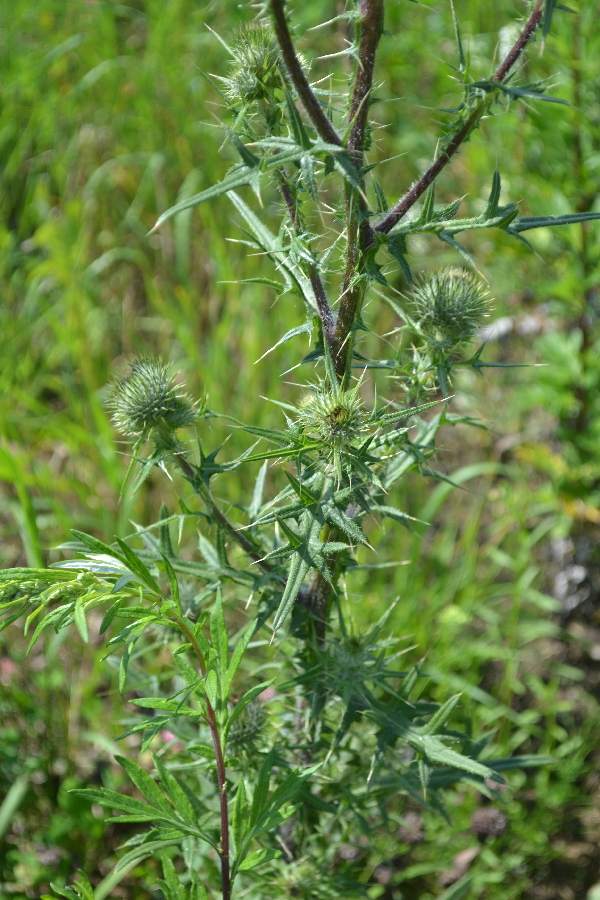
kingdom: Plantae
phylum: Tracheophyta
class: Magnoliopsida
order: Asterales
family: Asteraceae
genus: Cirsium
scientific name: Cirsium vulgare
